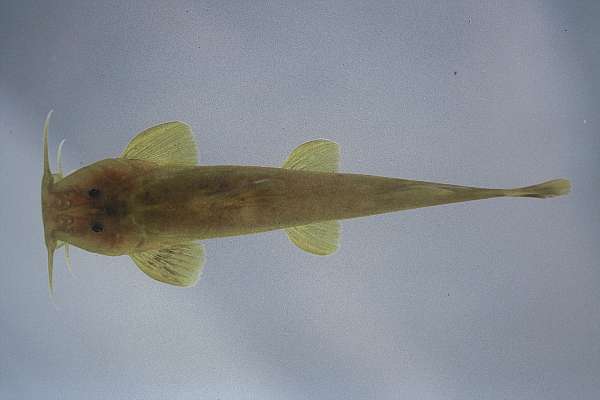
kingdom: Animalia
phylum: Chordata
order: Siluriformes
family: Amphiliidae
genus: Amphilius
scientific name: Amphilius uranoscopus
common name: Stargazer mountain catfish
